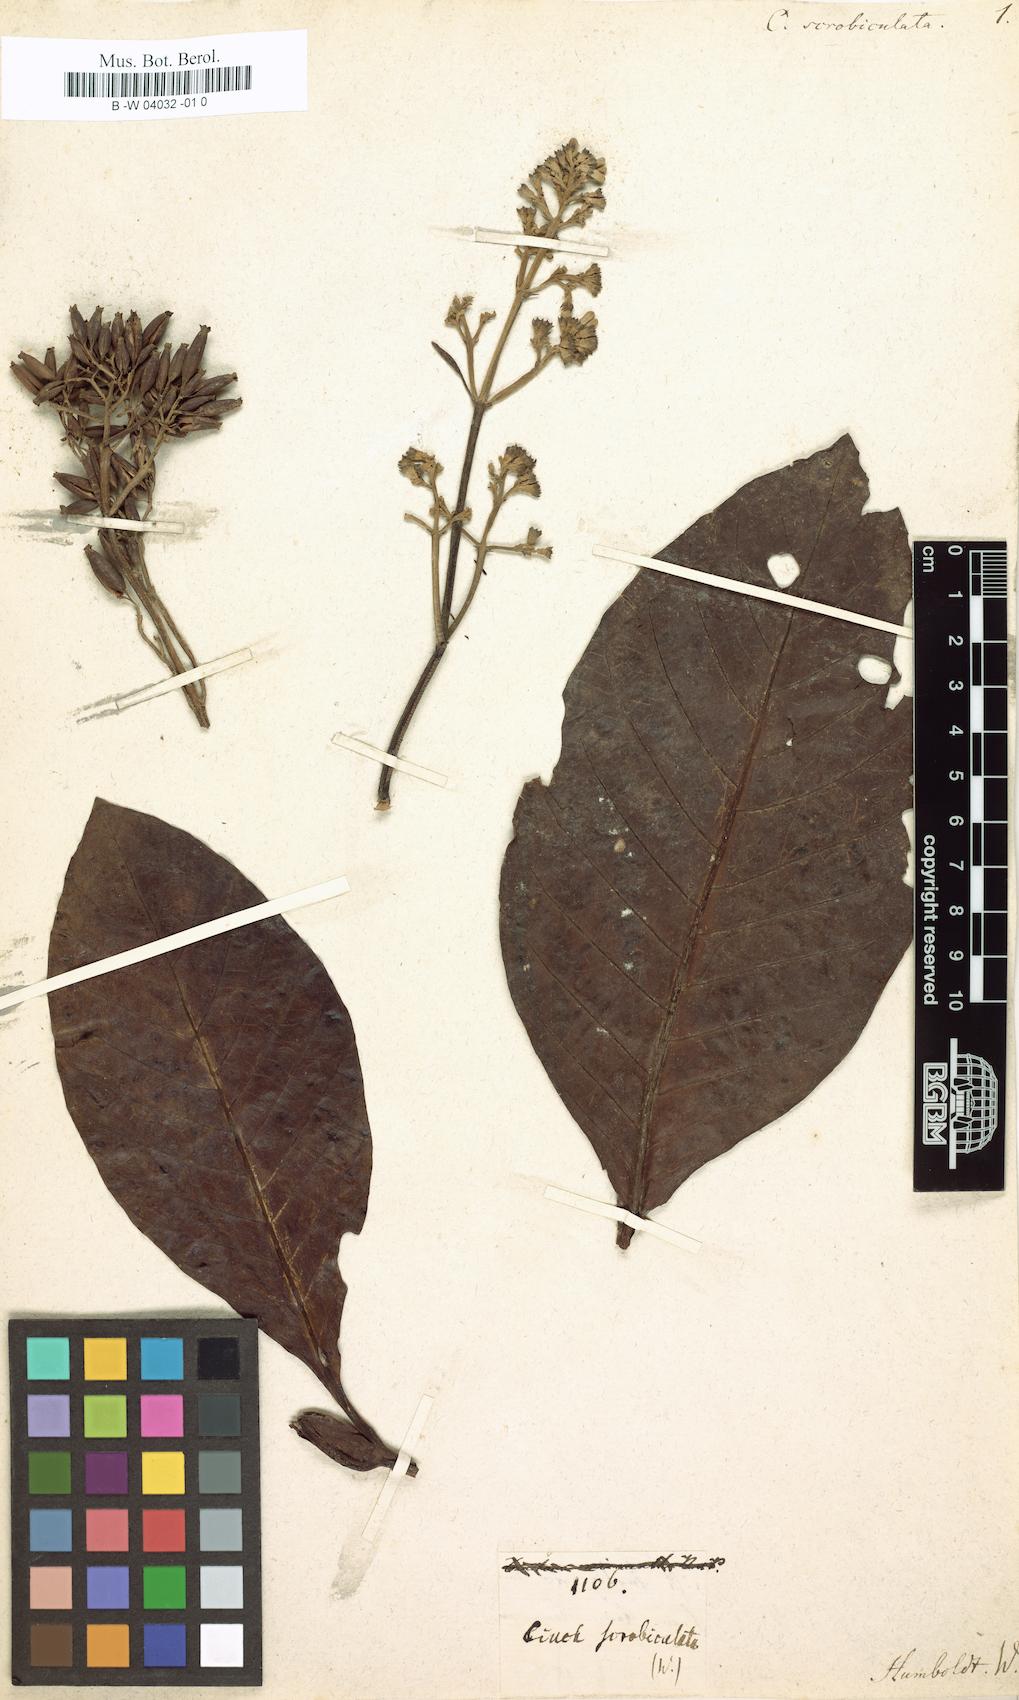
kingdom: Plantae
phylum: Tracheophyta
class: Magnoliopsida
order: Gentianales
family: Rubiaceae
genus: Cinchona
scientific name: Cinchona scrobiculata
